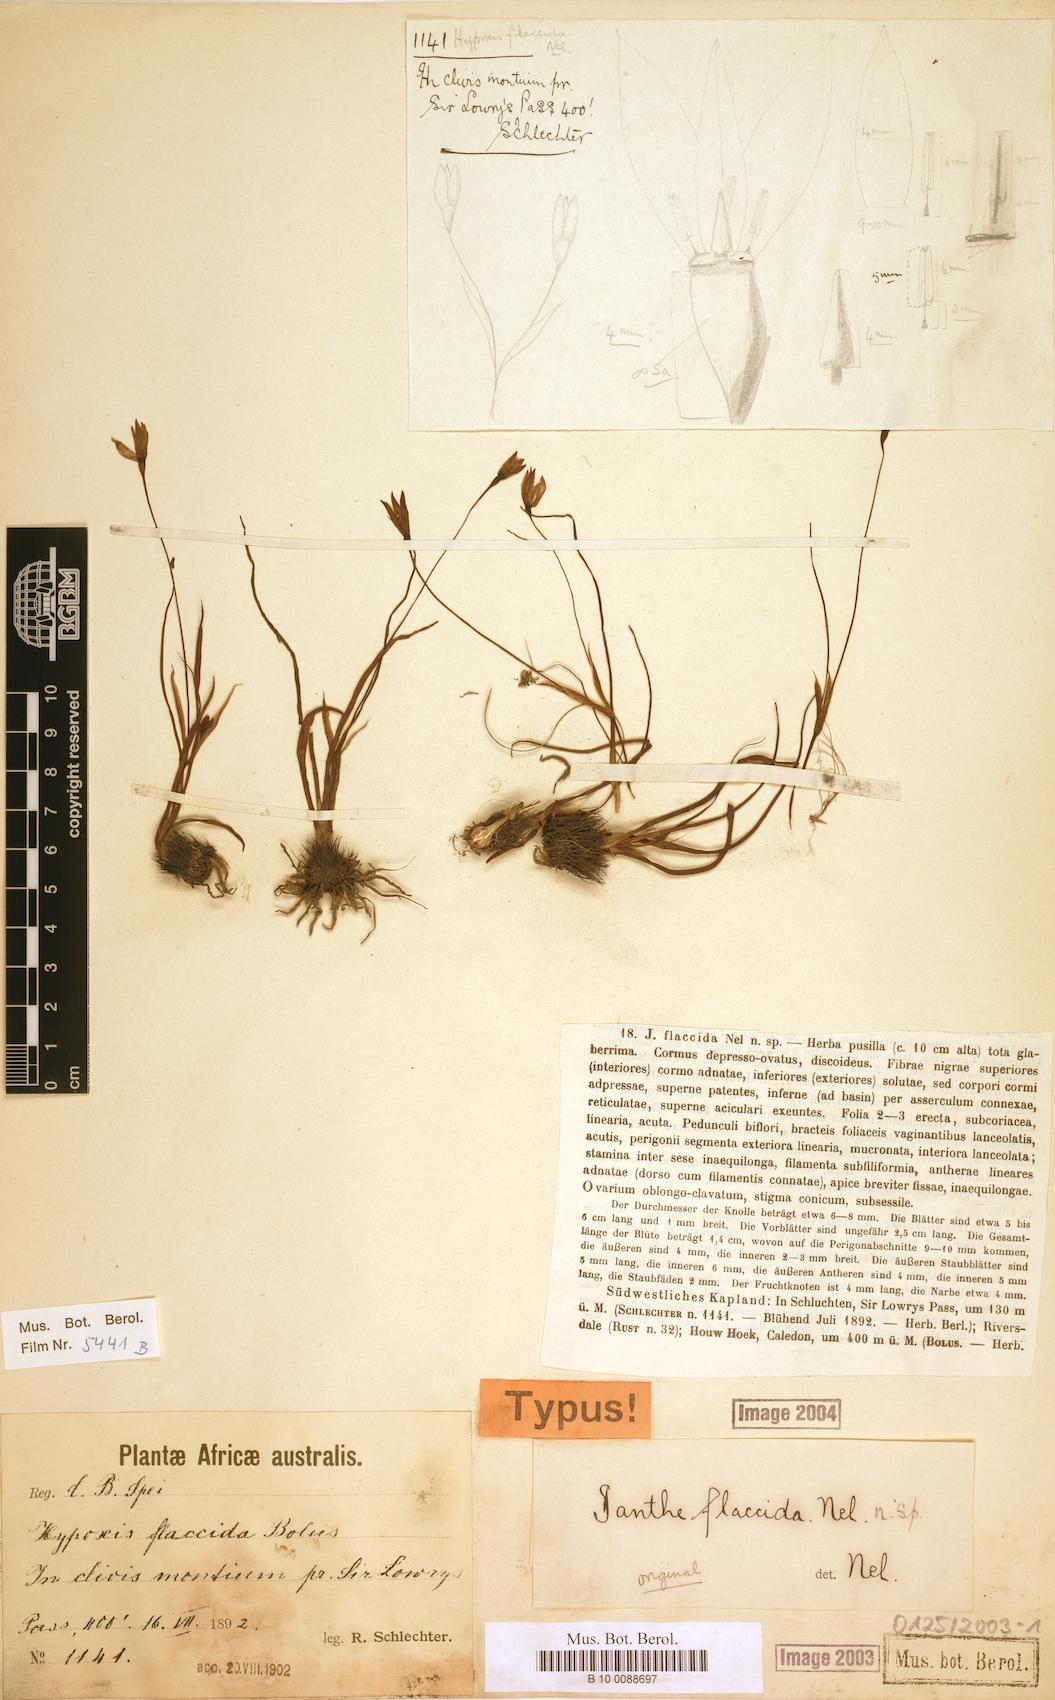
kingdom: Plantae
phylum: Tracheophyta
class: Liliopsida
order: Asparagales
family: Hypoxidaceae
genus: Pauridia
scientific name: Pauridia flaccida
